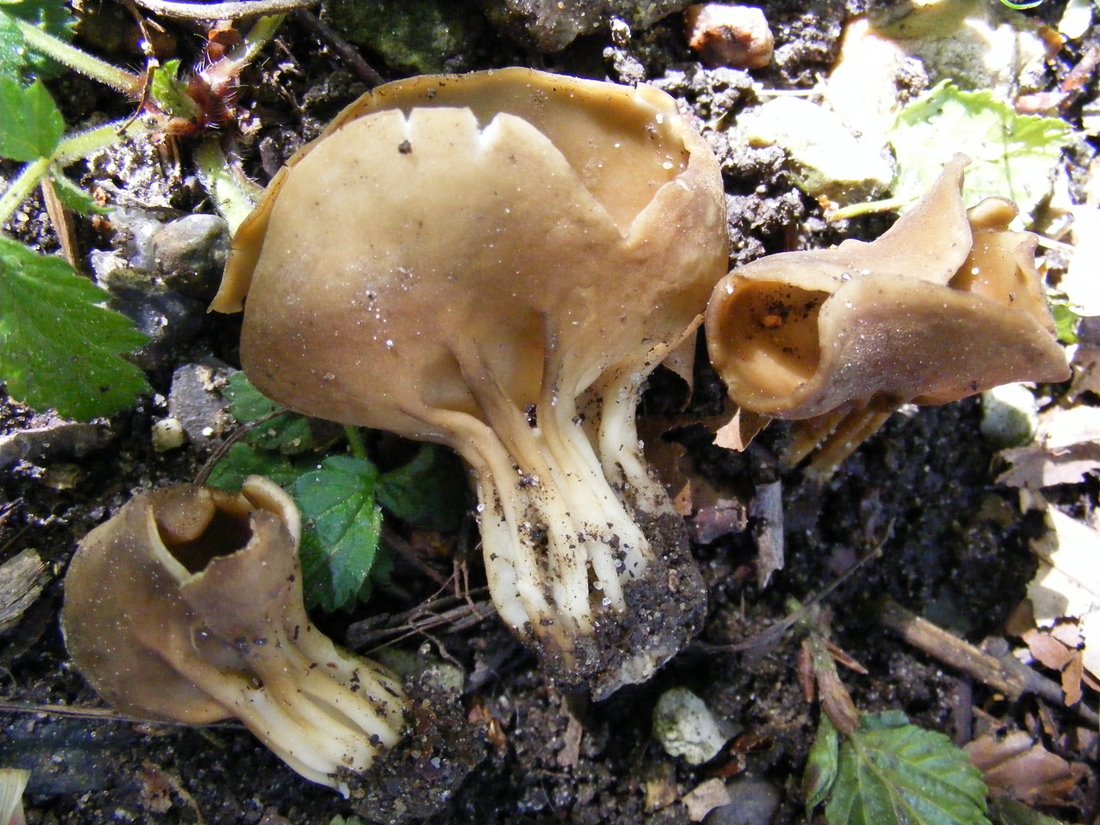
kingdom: Fungi
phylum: Ascomycota
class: Pezizomycetes
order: Pezizales
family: Helvellaceae
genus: Helvella
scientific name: Helvella acetabulum
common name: pokal-foldhat
